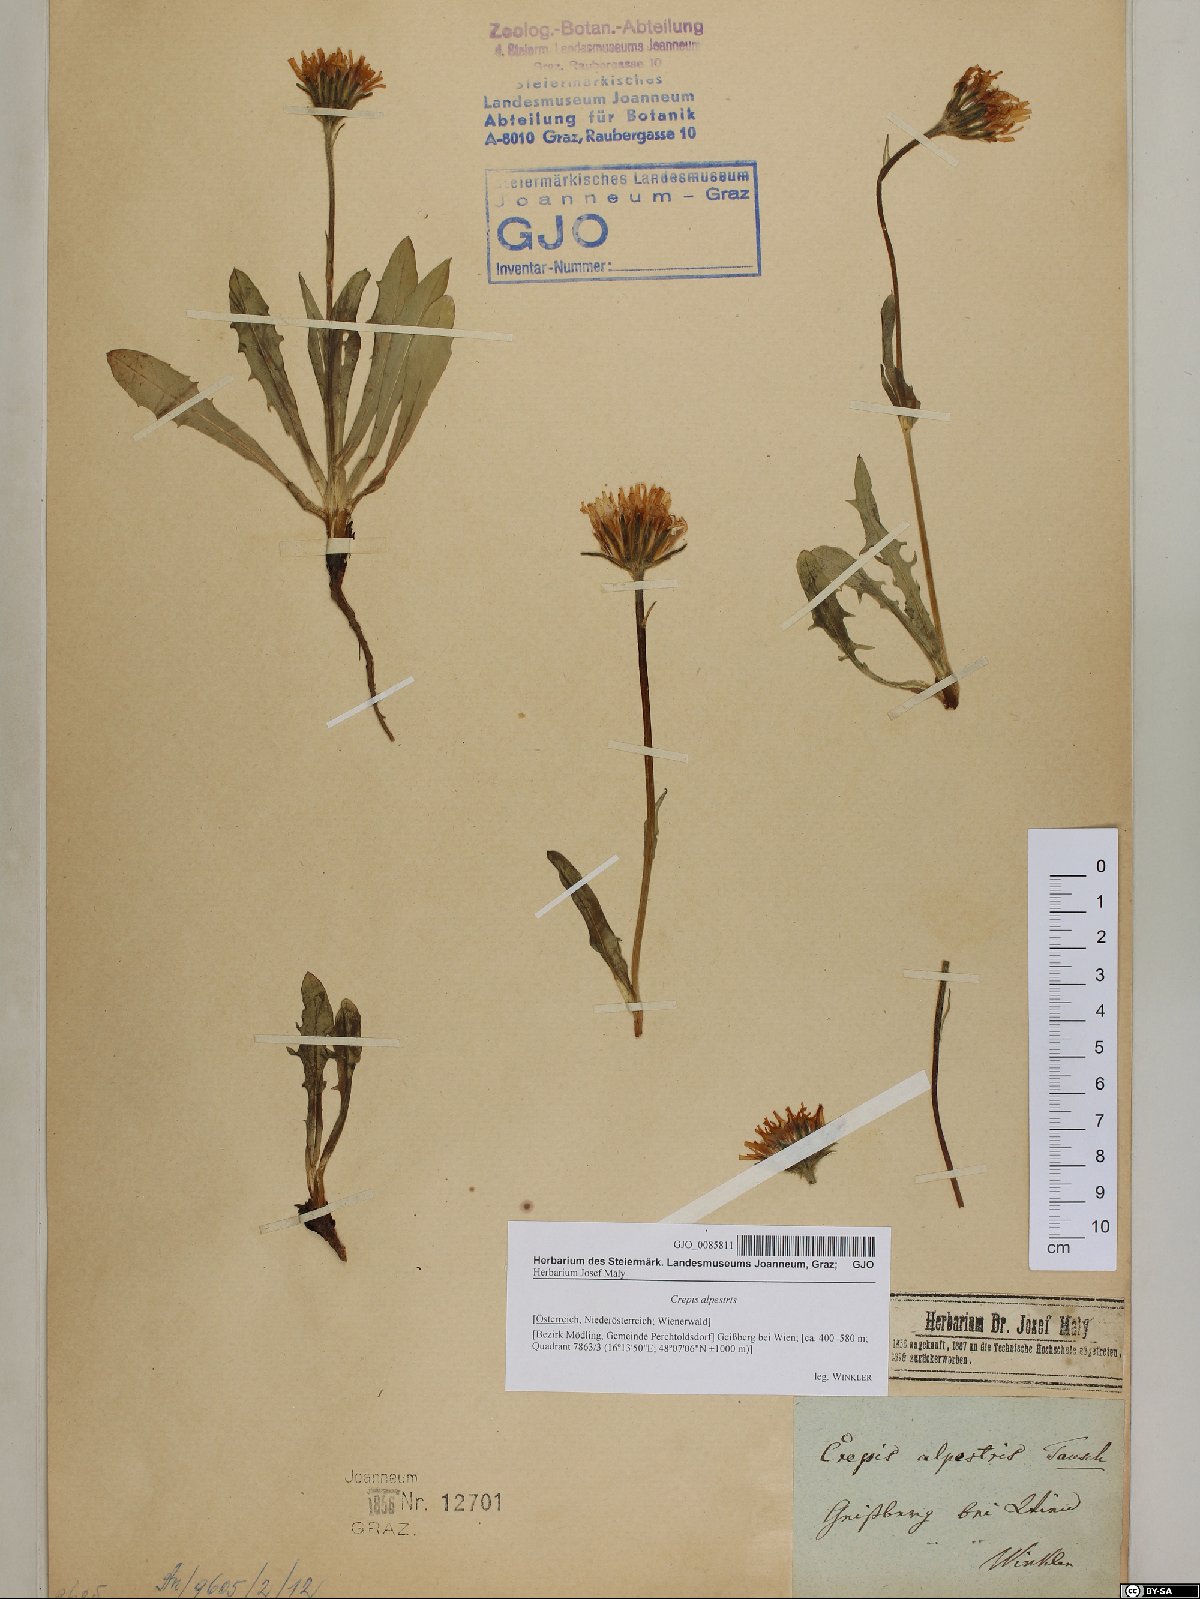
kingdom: Plantae
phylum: Tracheophyta
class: Magnoliopsida
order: Asterales
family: Asteraceae
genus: Crepis
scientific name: Crepis alpestris
